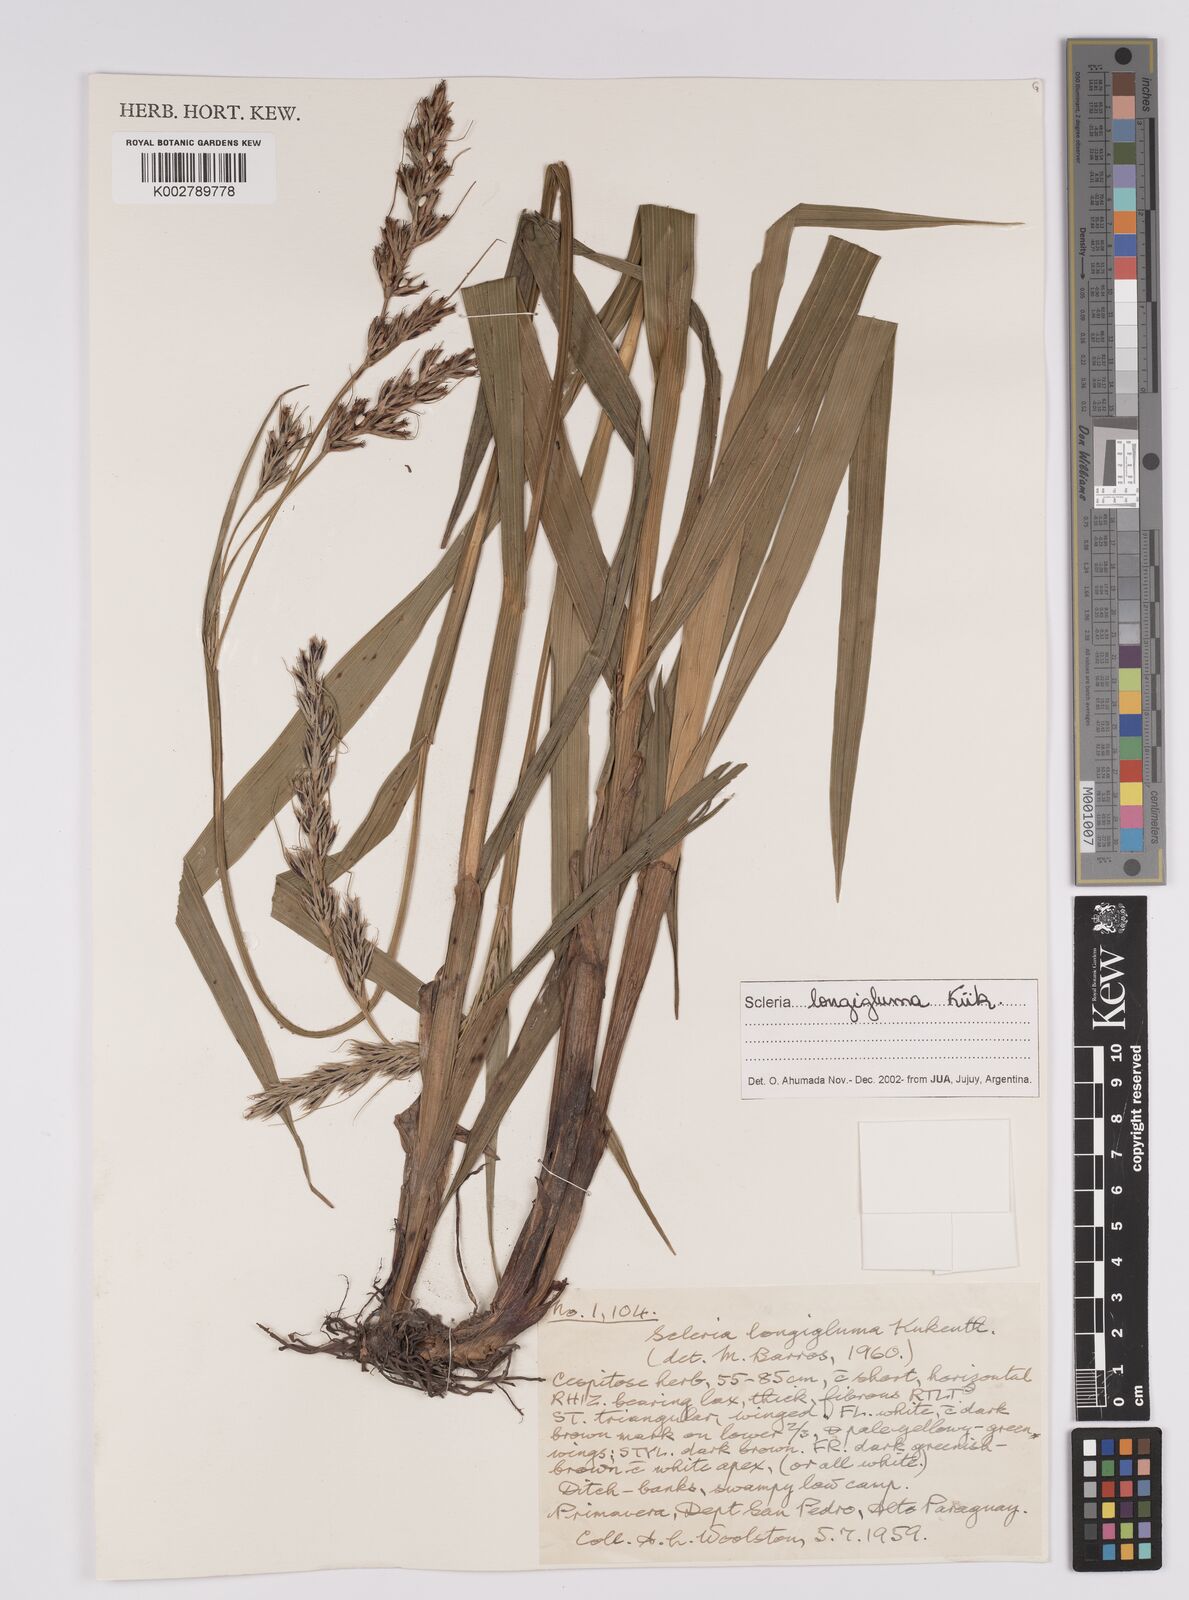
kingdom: Plantae
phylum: Tracheophyta
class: Liliopsida
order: Poales
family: Cyperaceae
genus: Scleria
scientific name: Scleria melanomphala
